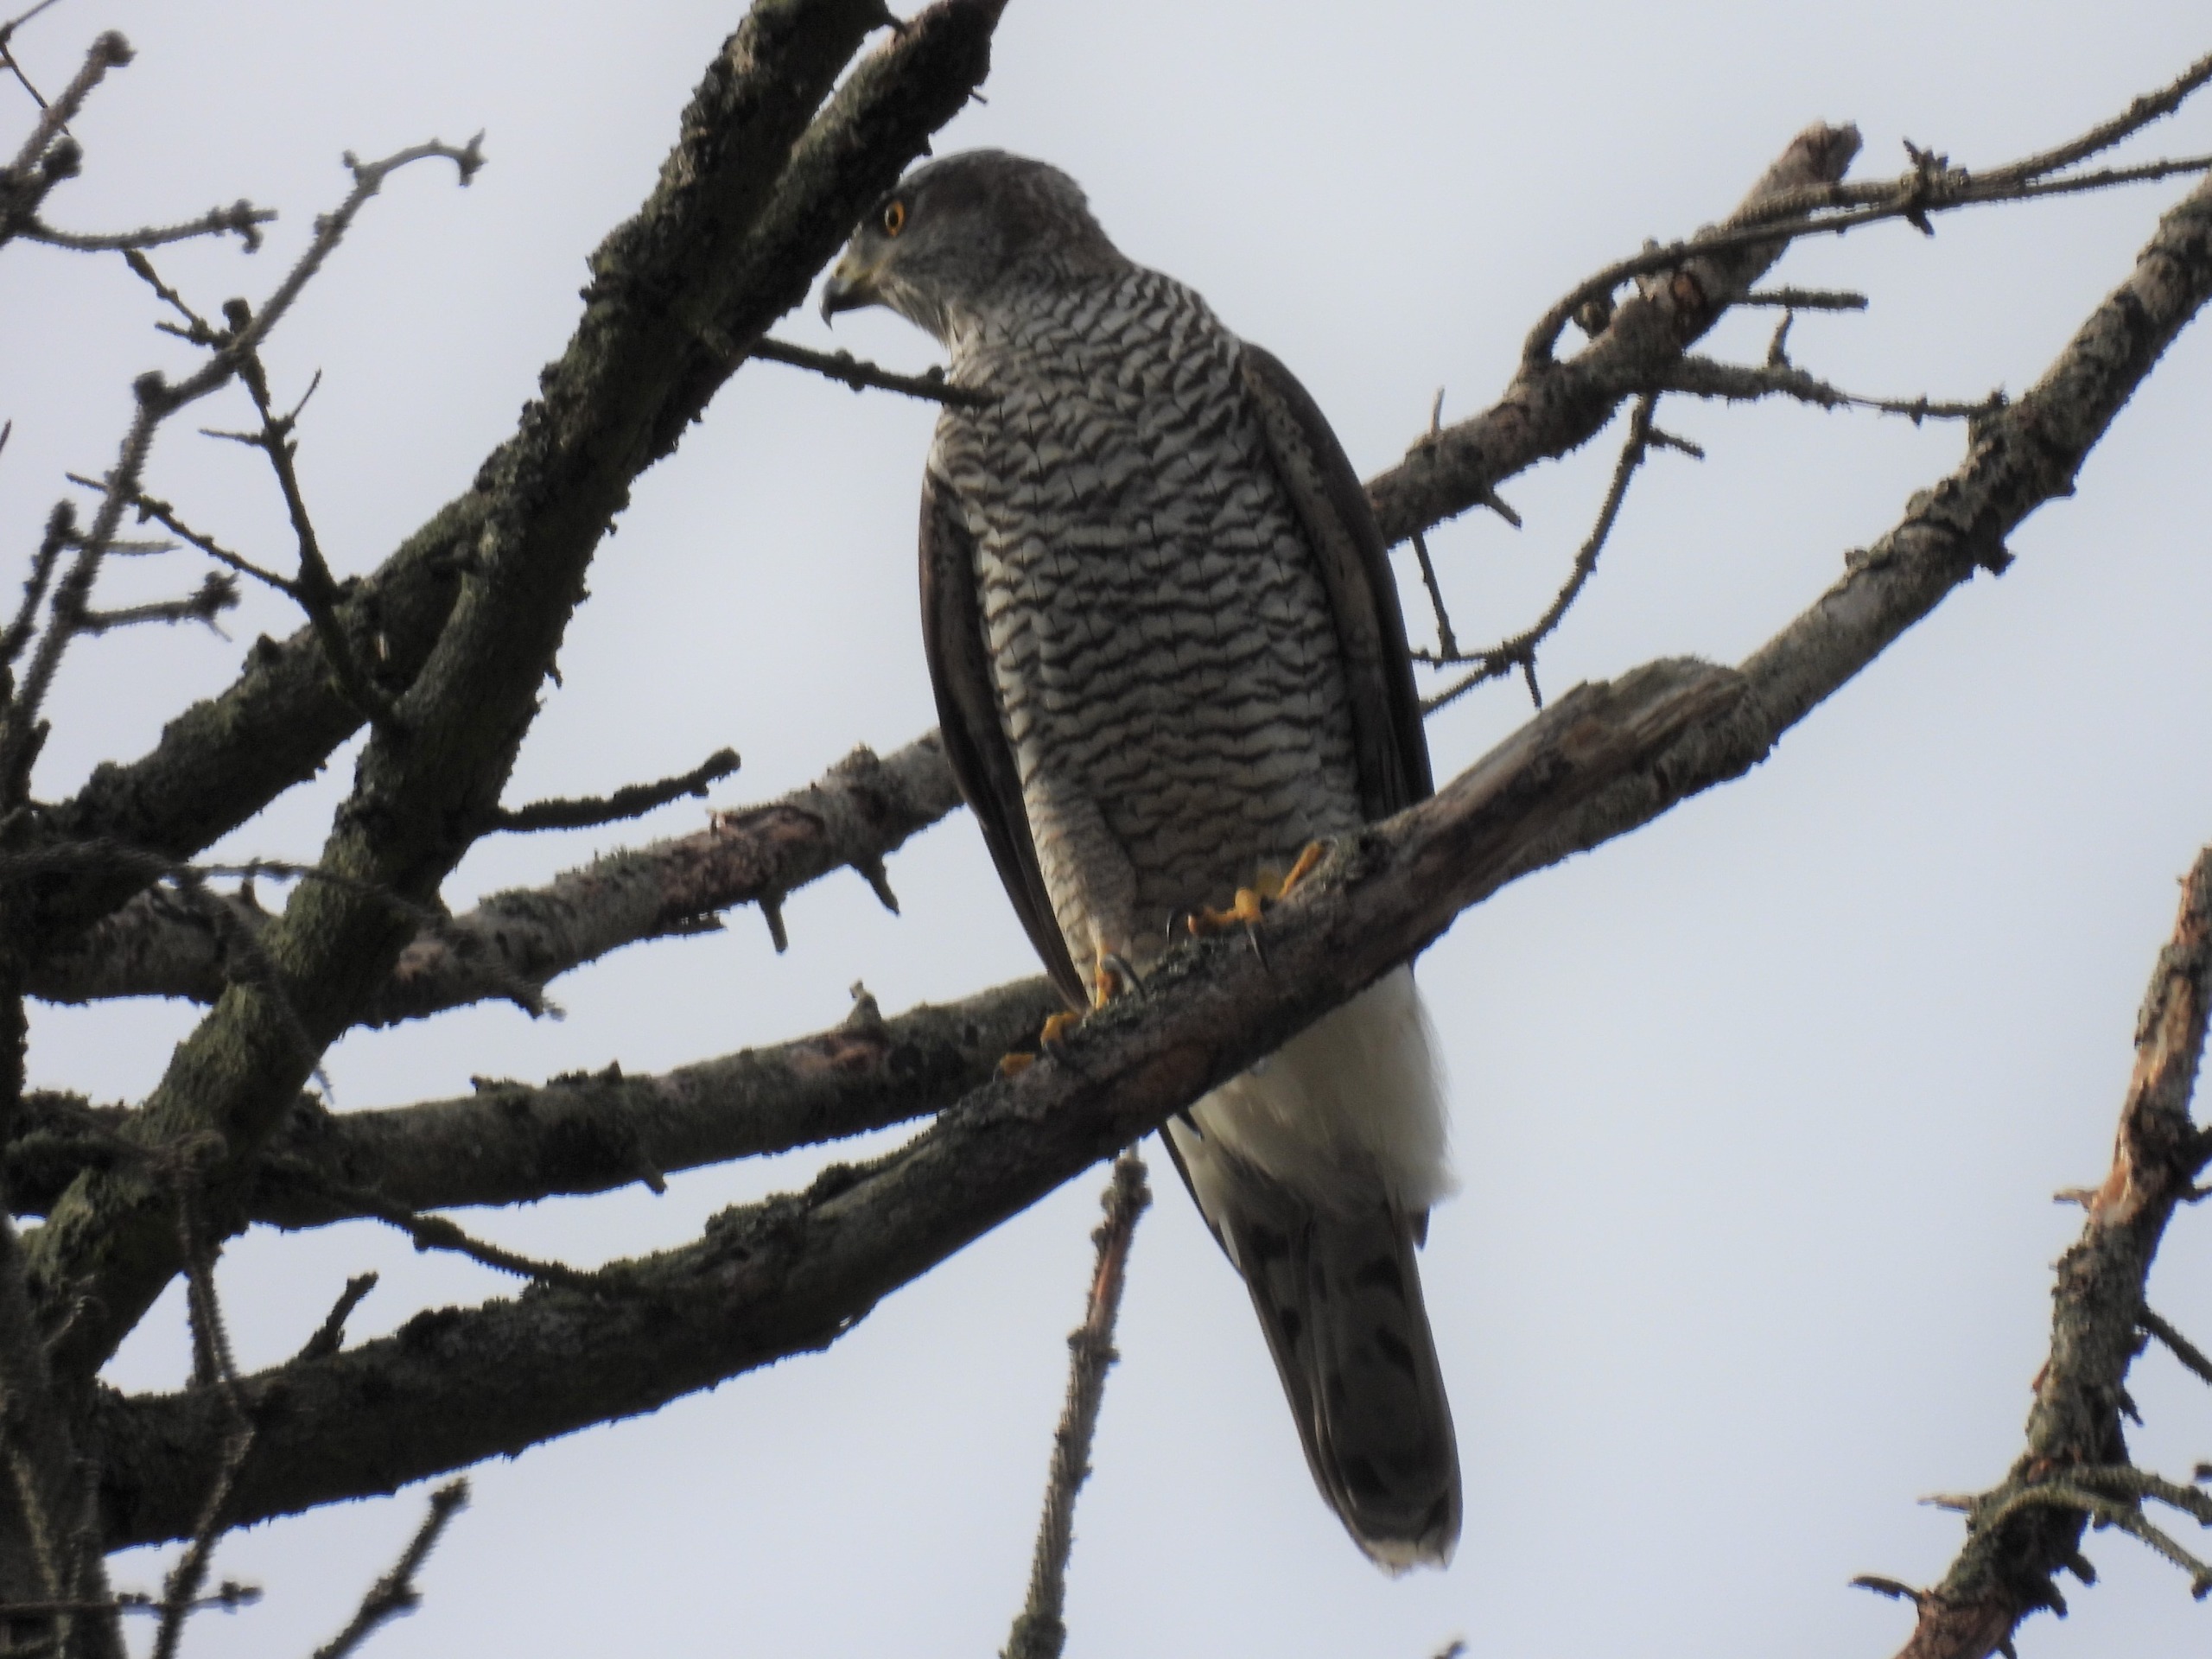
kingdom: Animalia
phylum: Chordata
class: Aves
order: Accipitriformes
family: Accipitridae
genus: Accipiter
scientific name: Accipiter gentilis
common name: Duehøg
